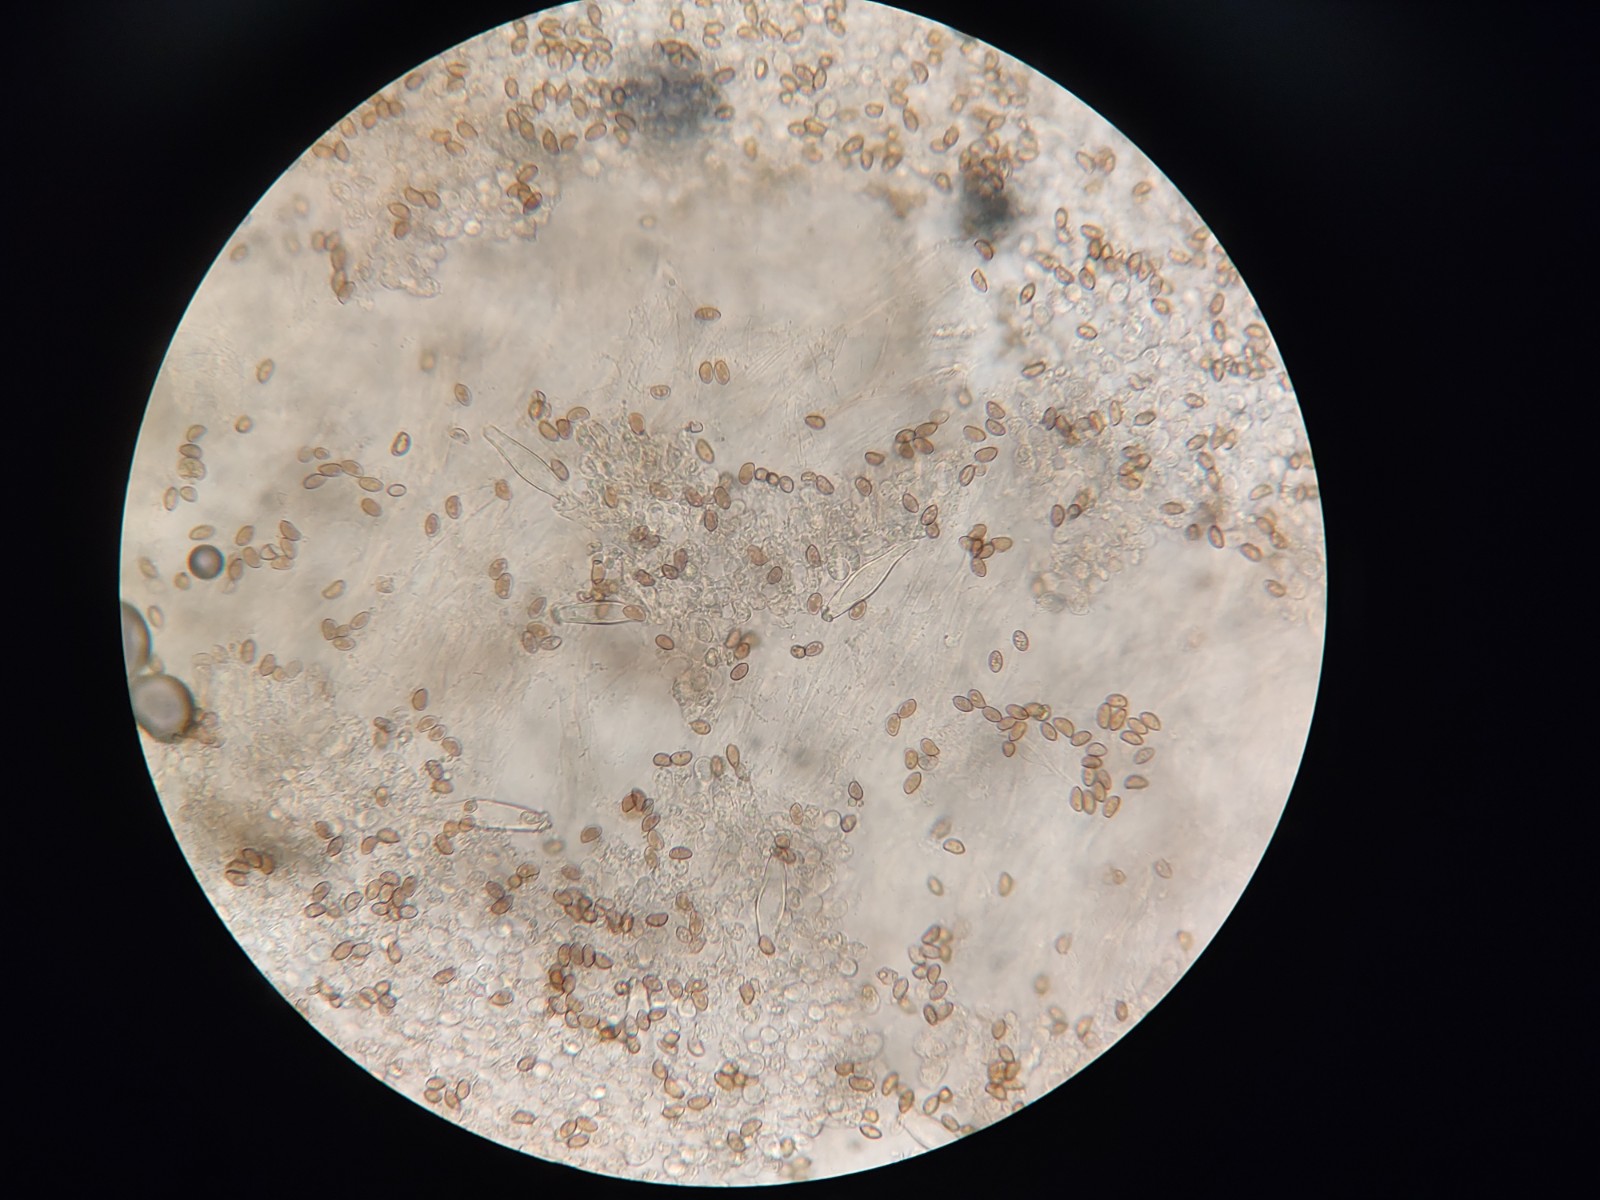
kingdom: Fungi
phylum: Basidiomycota
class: Agaricomycetes
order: Agaricales
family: Inocybaceae
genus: Inocybe
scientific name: Inocybe mycenoides
